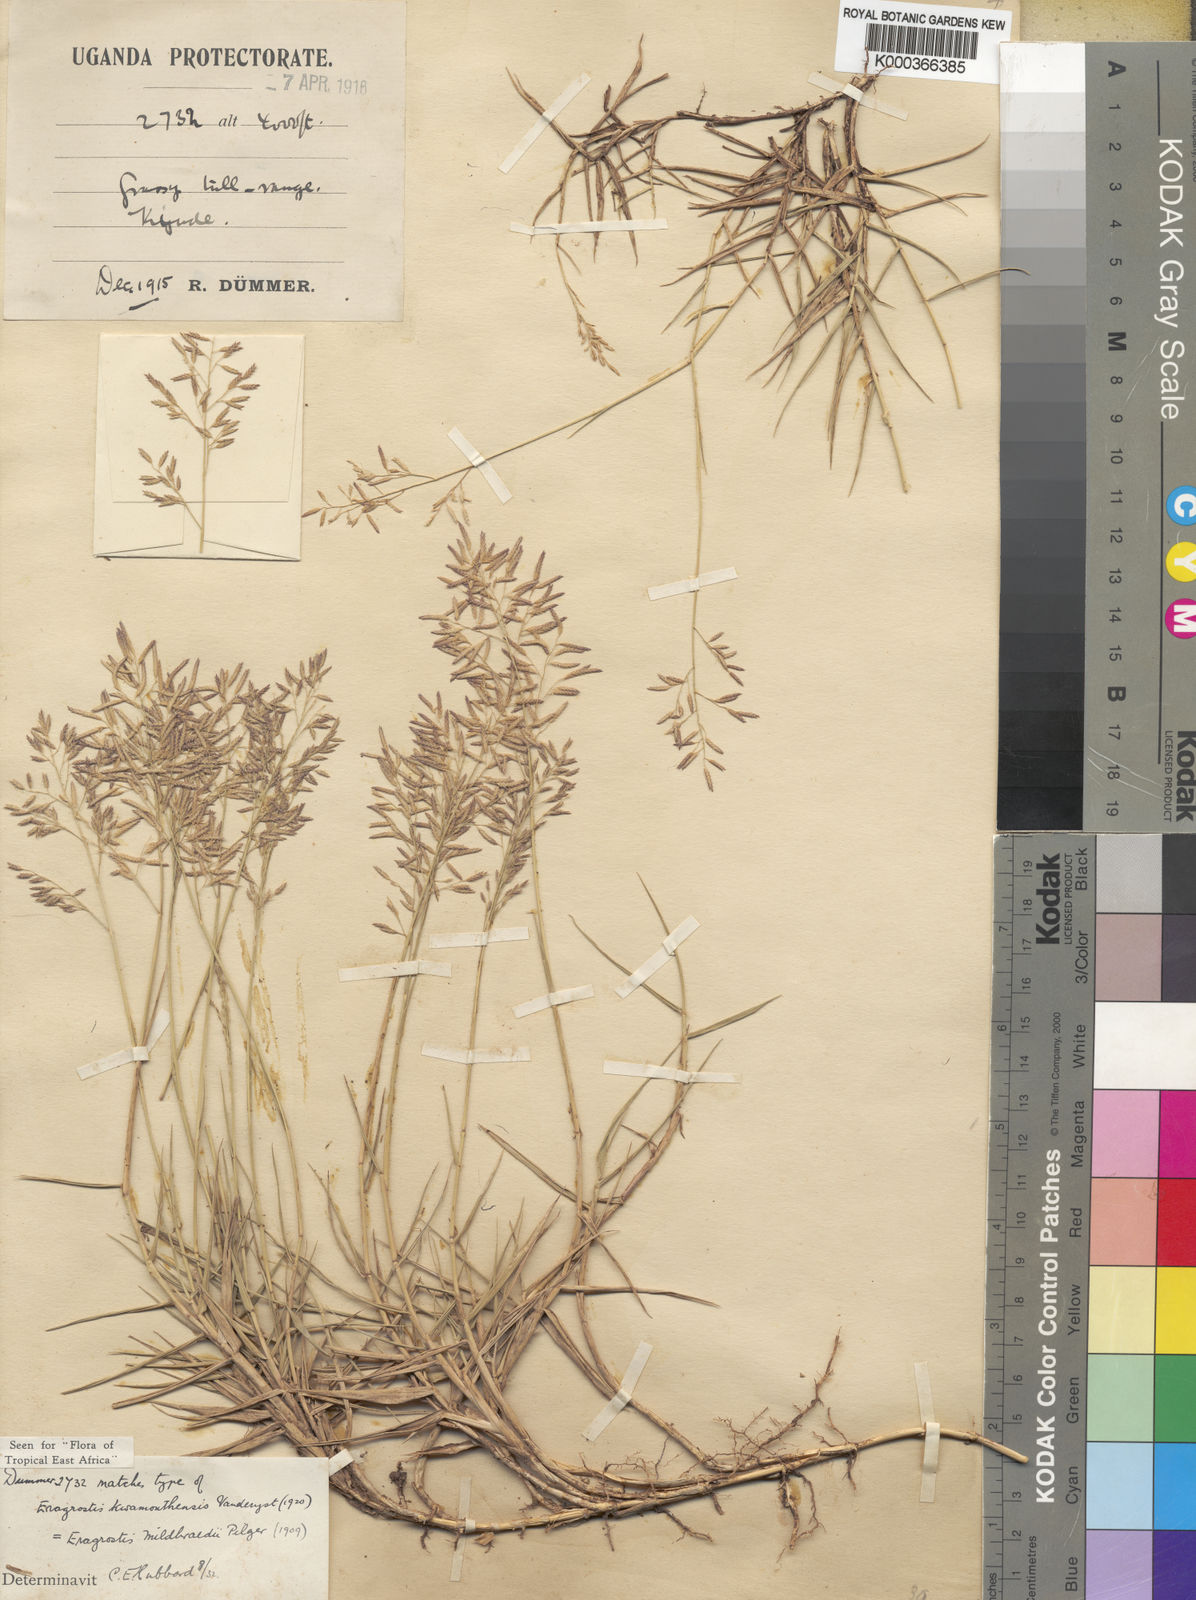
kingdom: Plantae
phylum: Tracheophyta
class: Liliopsida
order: Poales
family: Poaceae
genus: Eragrostis
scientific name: Eragrostis mildbraedii
